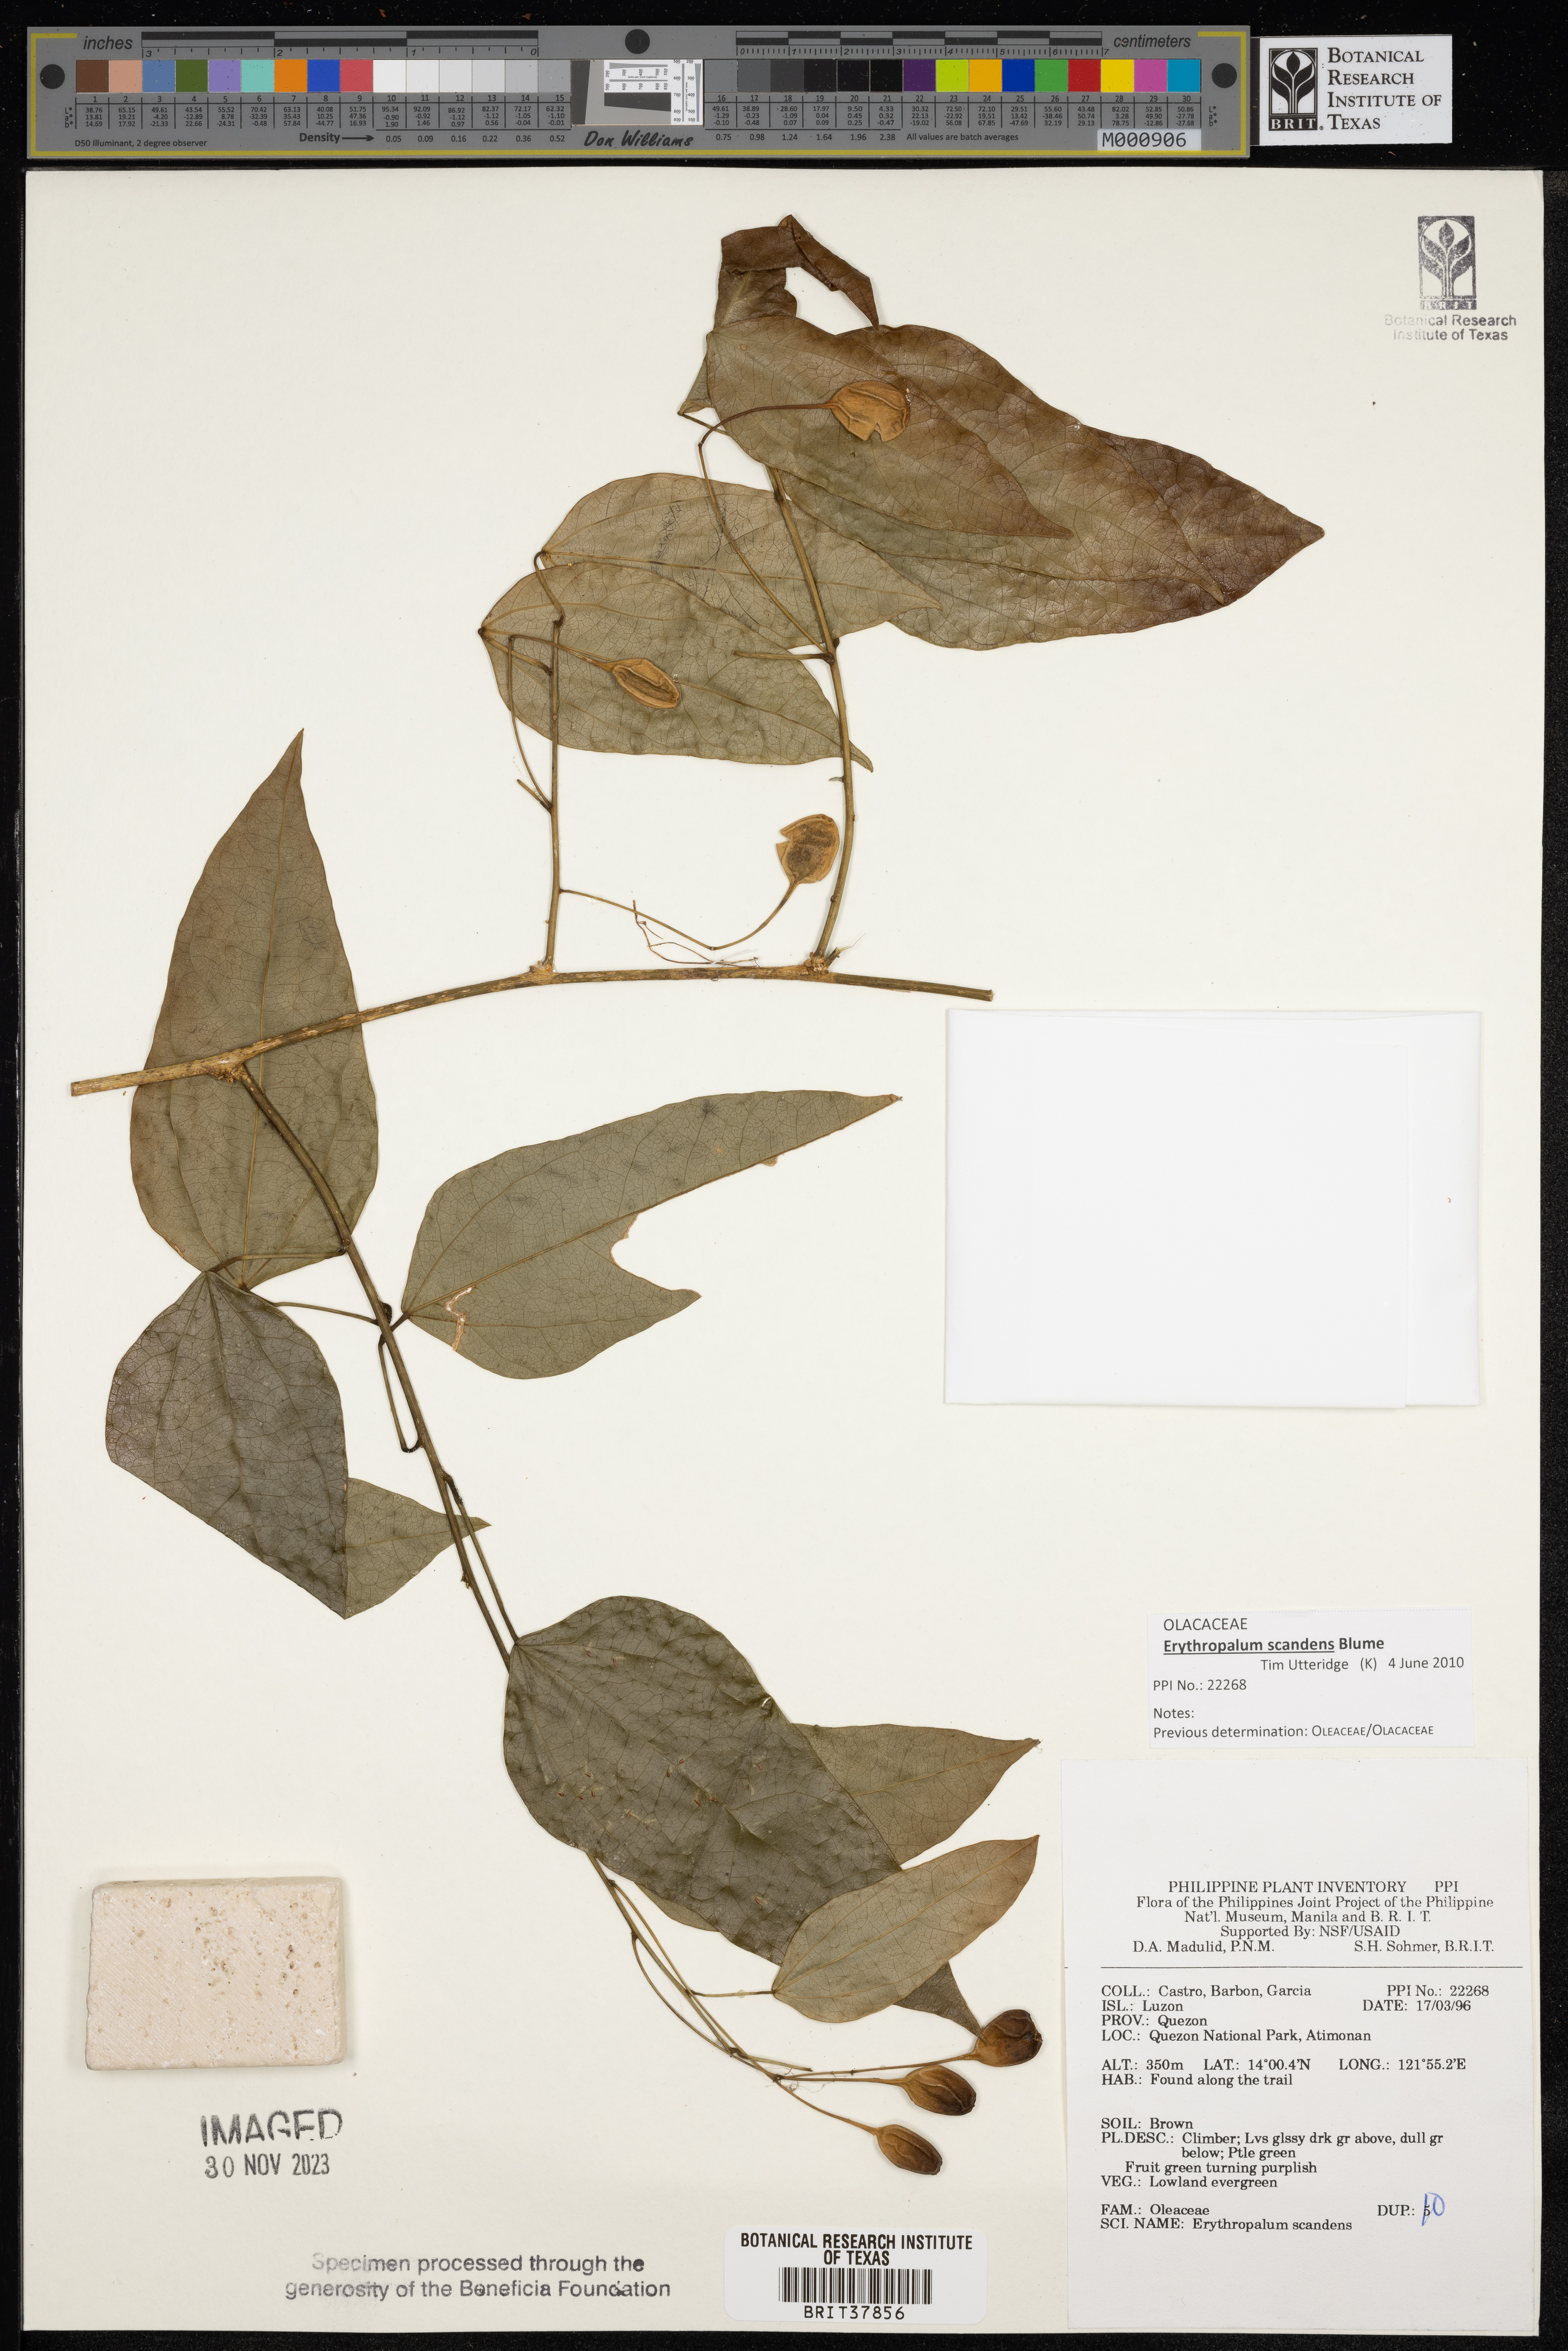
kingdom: Plantae
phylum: Tracheophyta
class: Magnoliopsida
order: Santalales
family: Erythropalaceae
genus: Erythropalum
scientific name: Erythropalum scandens
